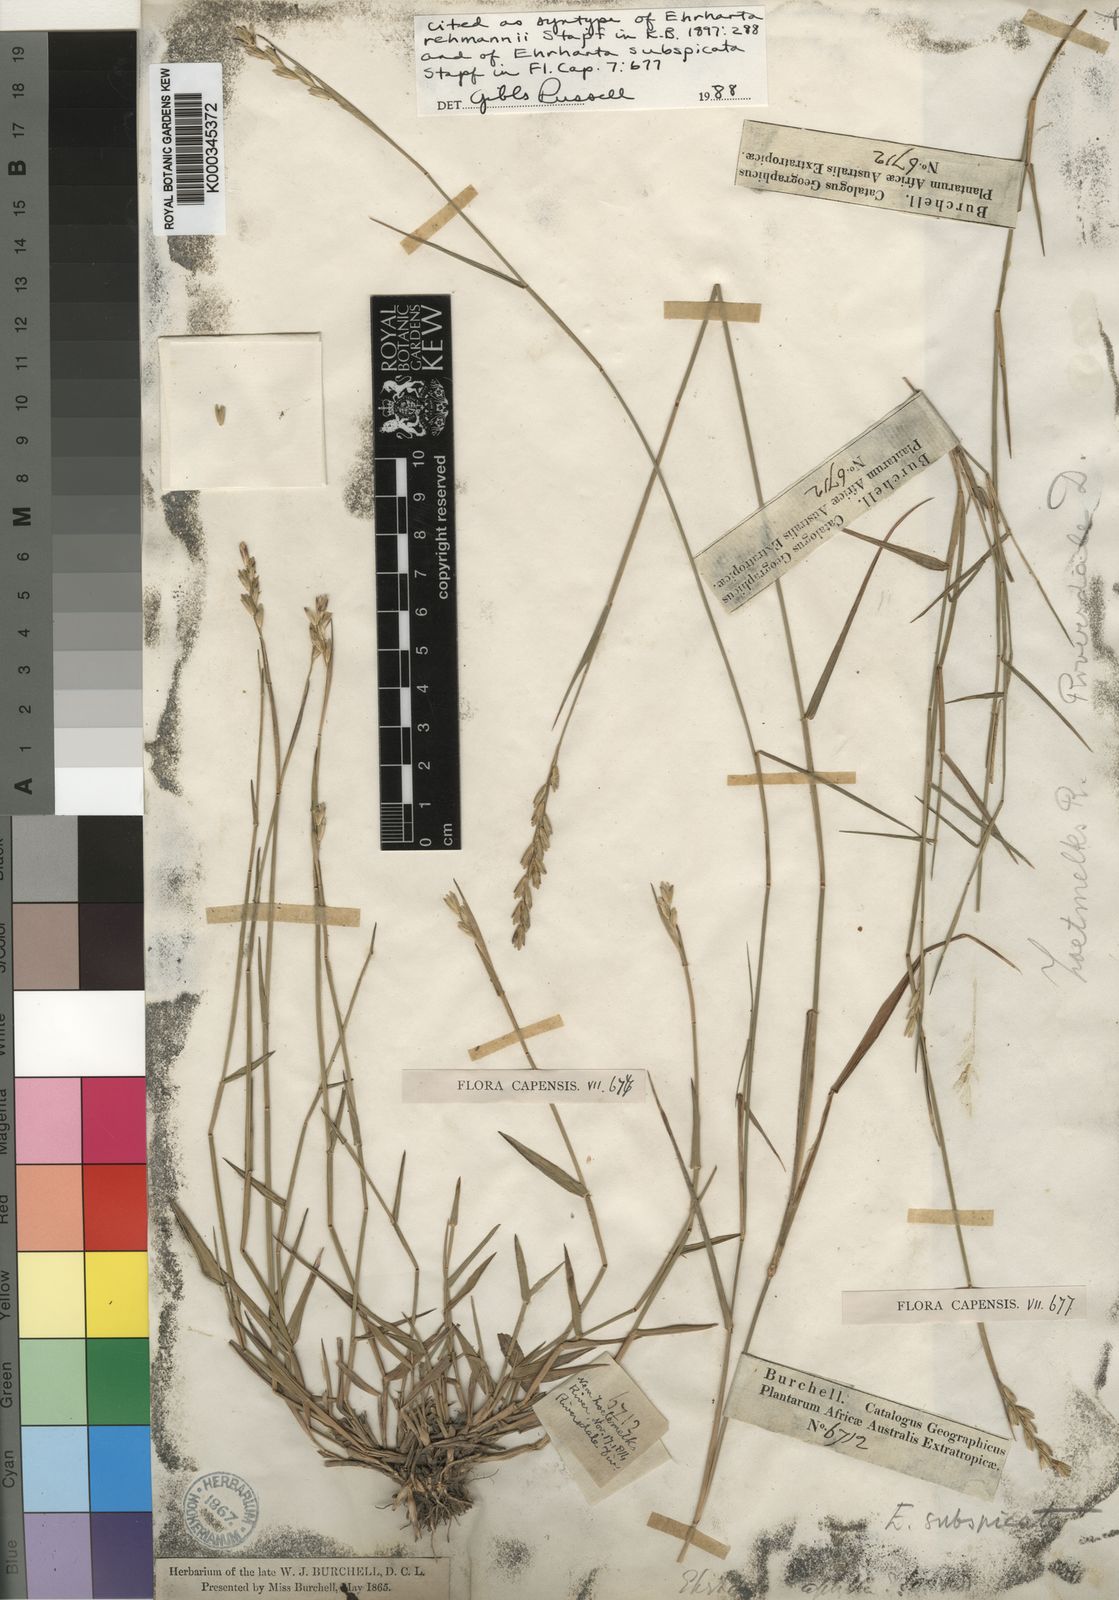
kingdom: Plantae
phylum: Tracheophyta
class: Liliopsida
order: Poales
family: Poaceae
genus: Ehrharta
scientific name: Ehrharta rehmannii
